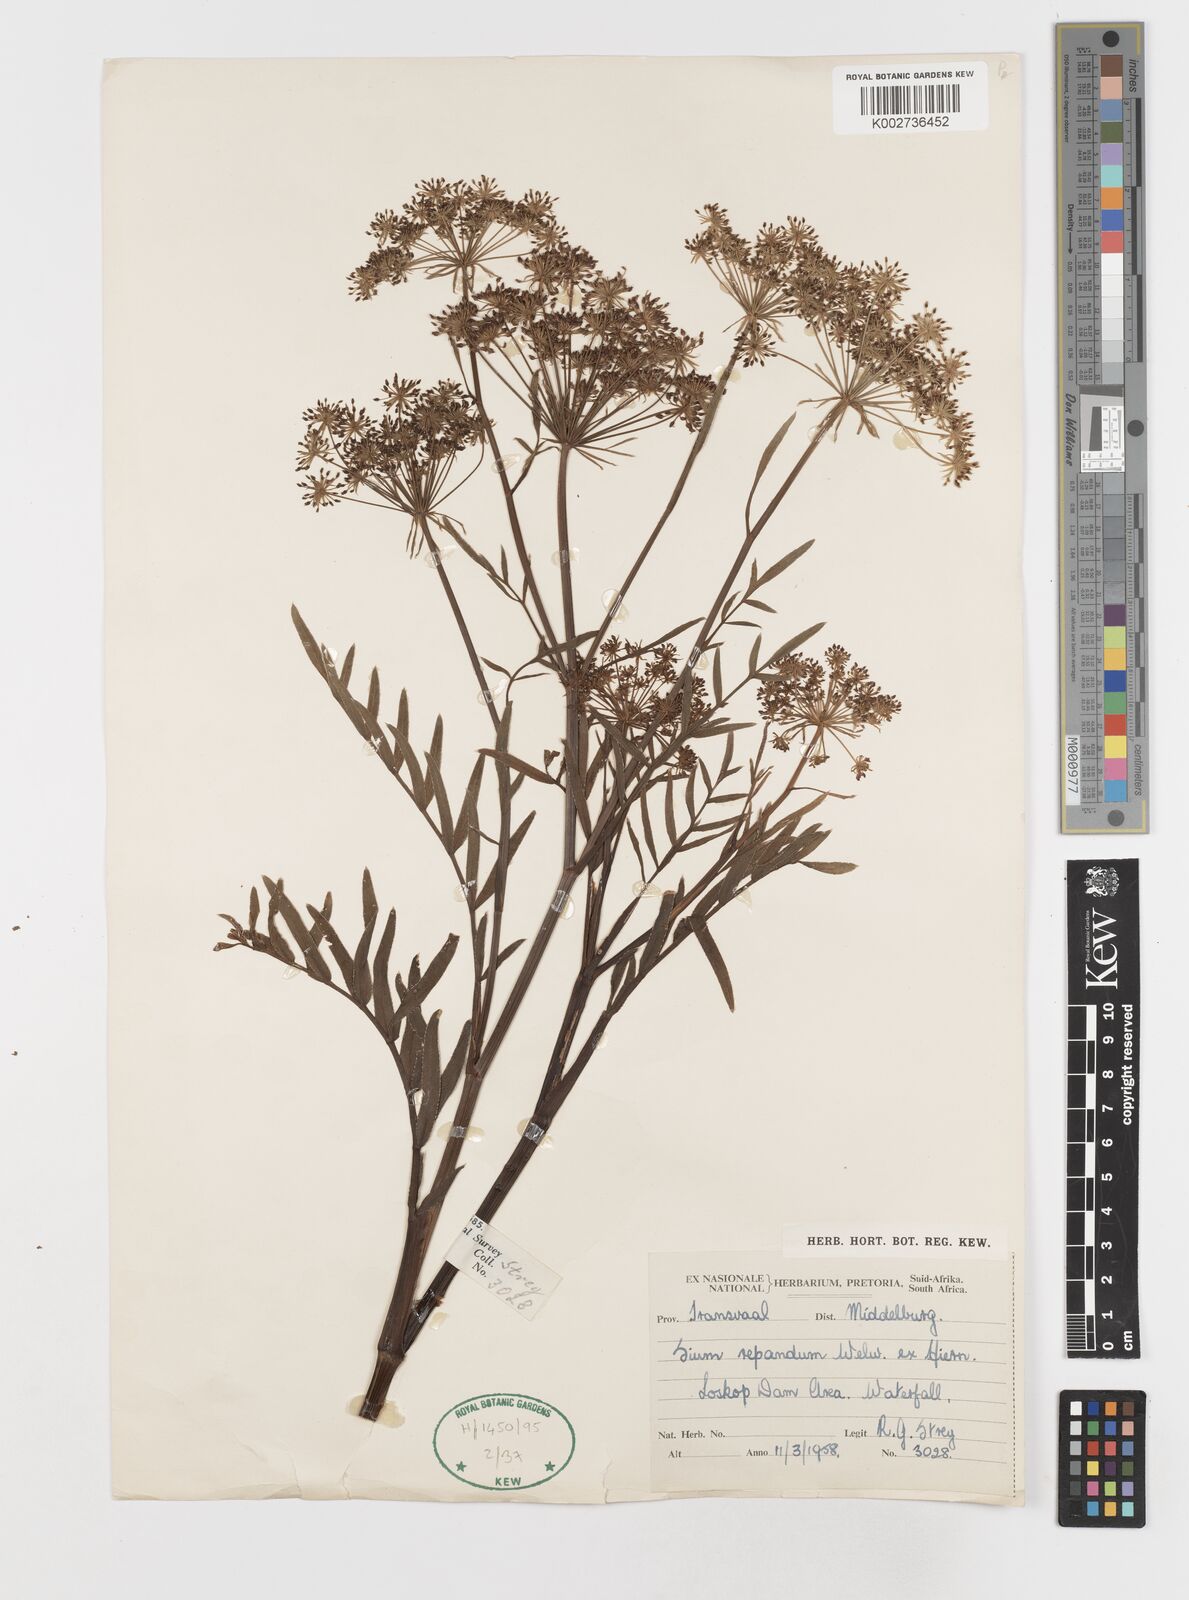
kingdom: Plantae
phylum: Tracheophyta
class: Magnoliopsida
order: Apiales
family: Apiaceae
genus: Berula
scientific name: Berula repanda
